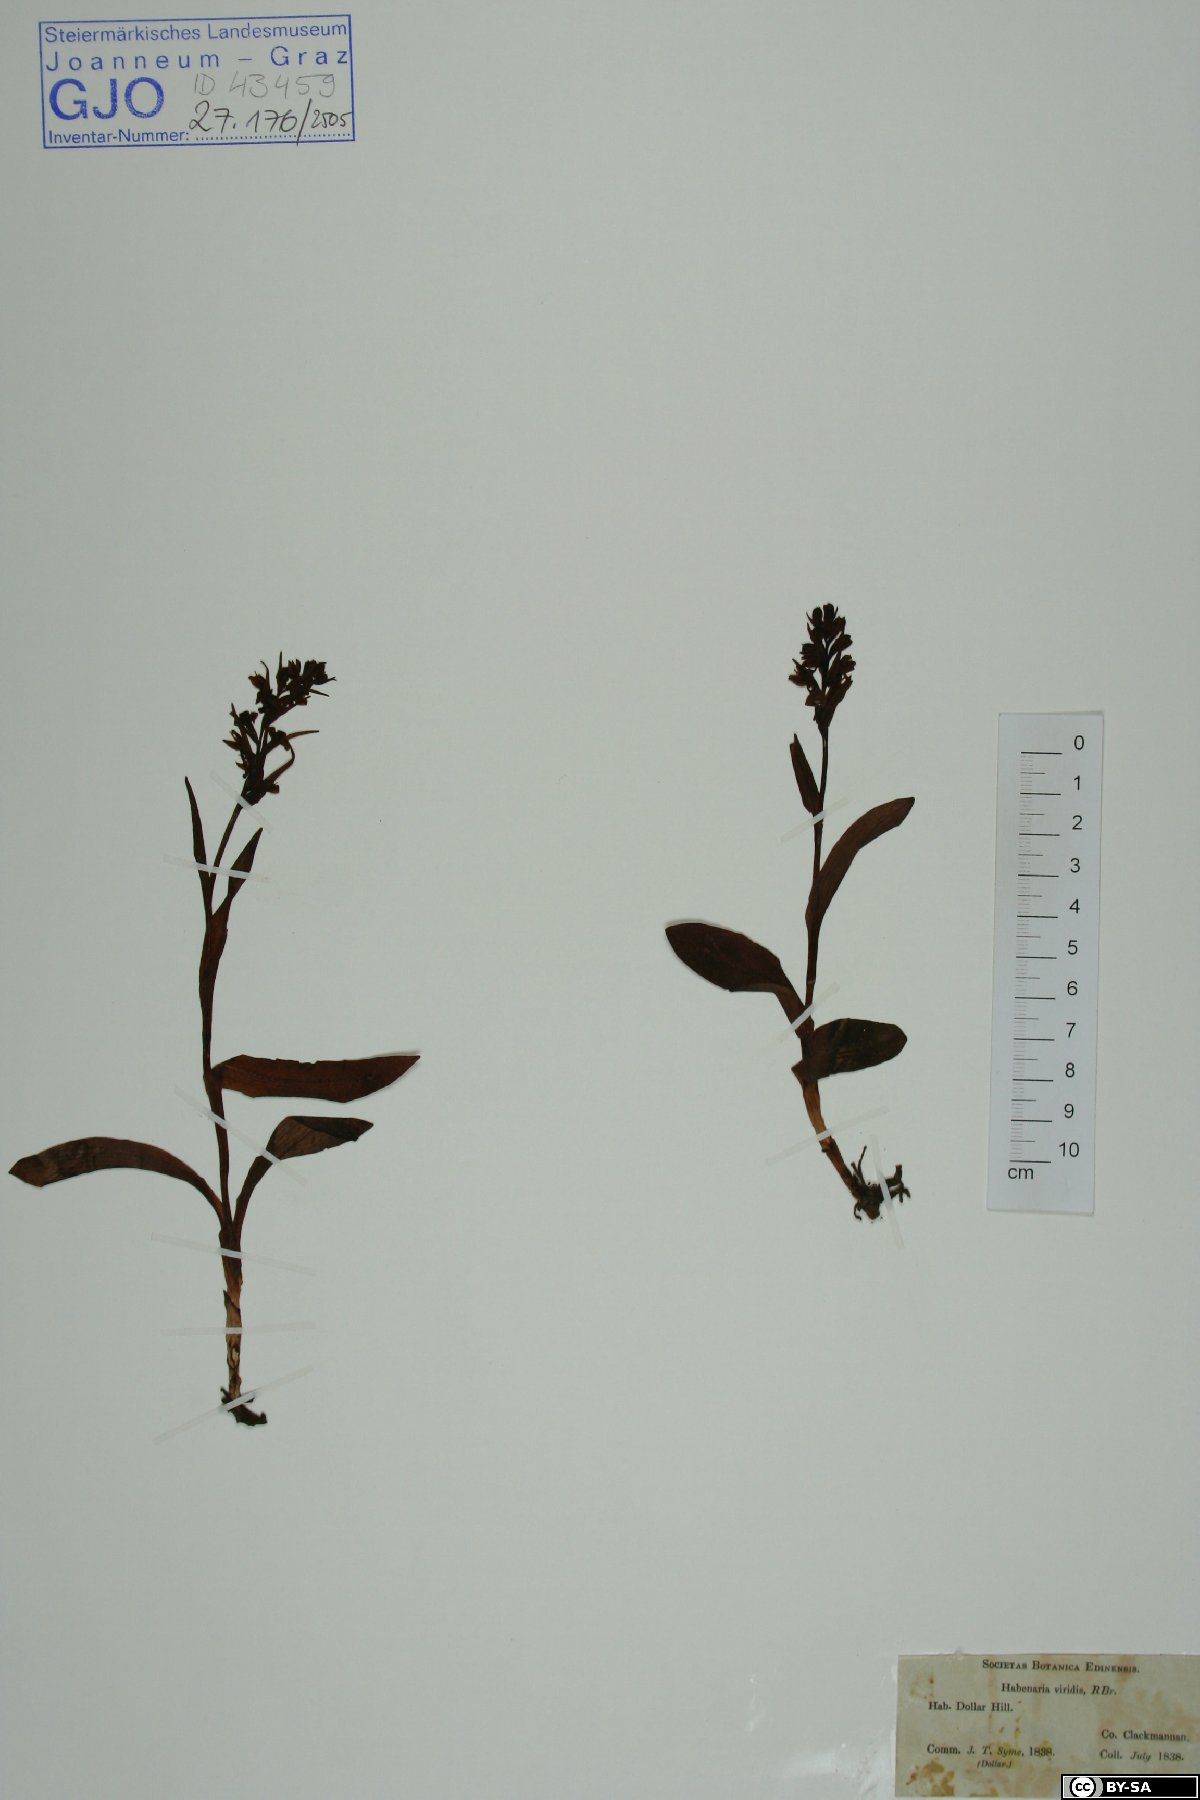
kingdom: Plantae
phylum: Tracheophyta
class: Liliopsida
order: Asparagales
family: Orchidaceae
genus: Dactylorhiza
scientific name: Dactylorhiza viridis
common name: Longbract frog orchid
